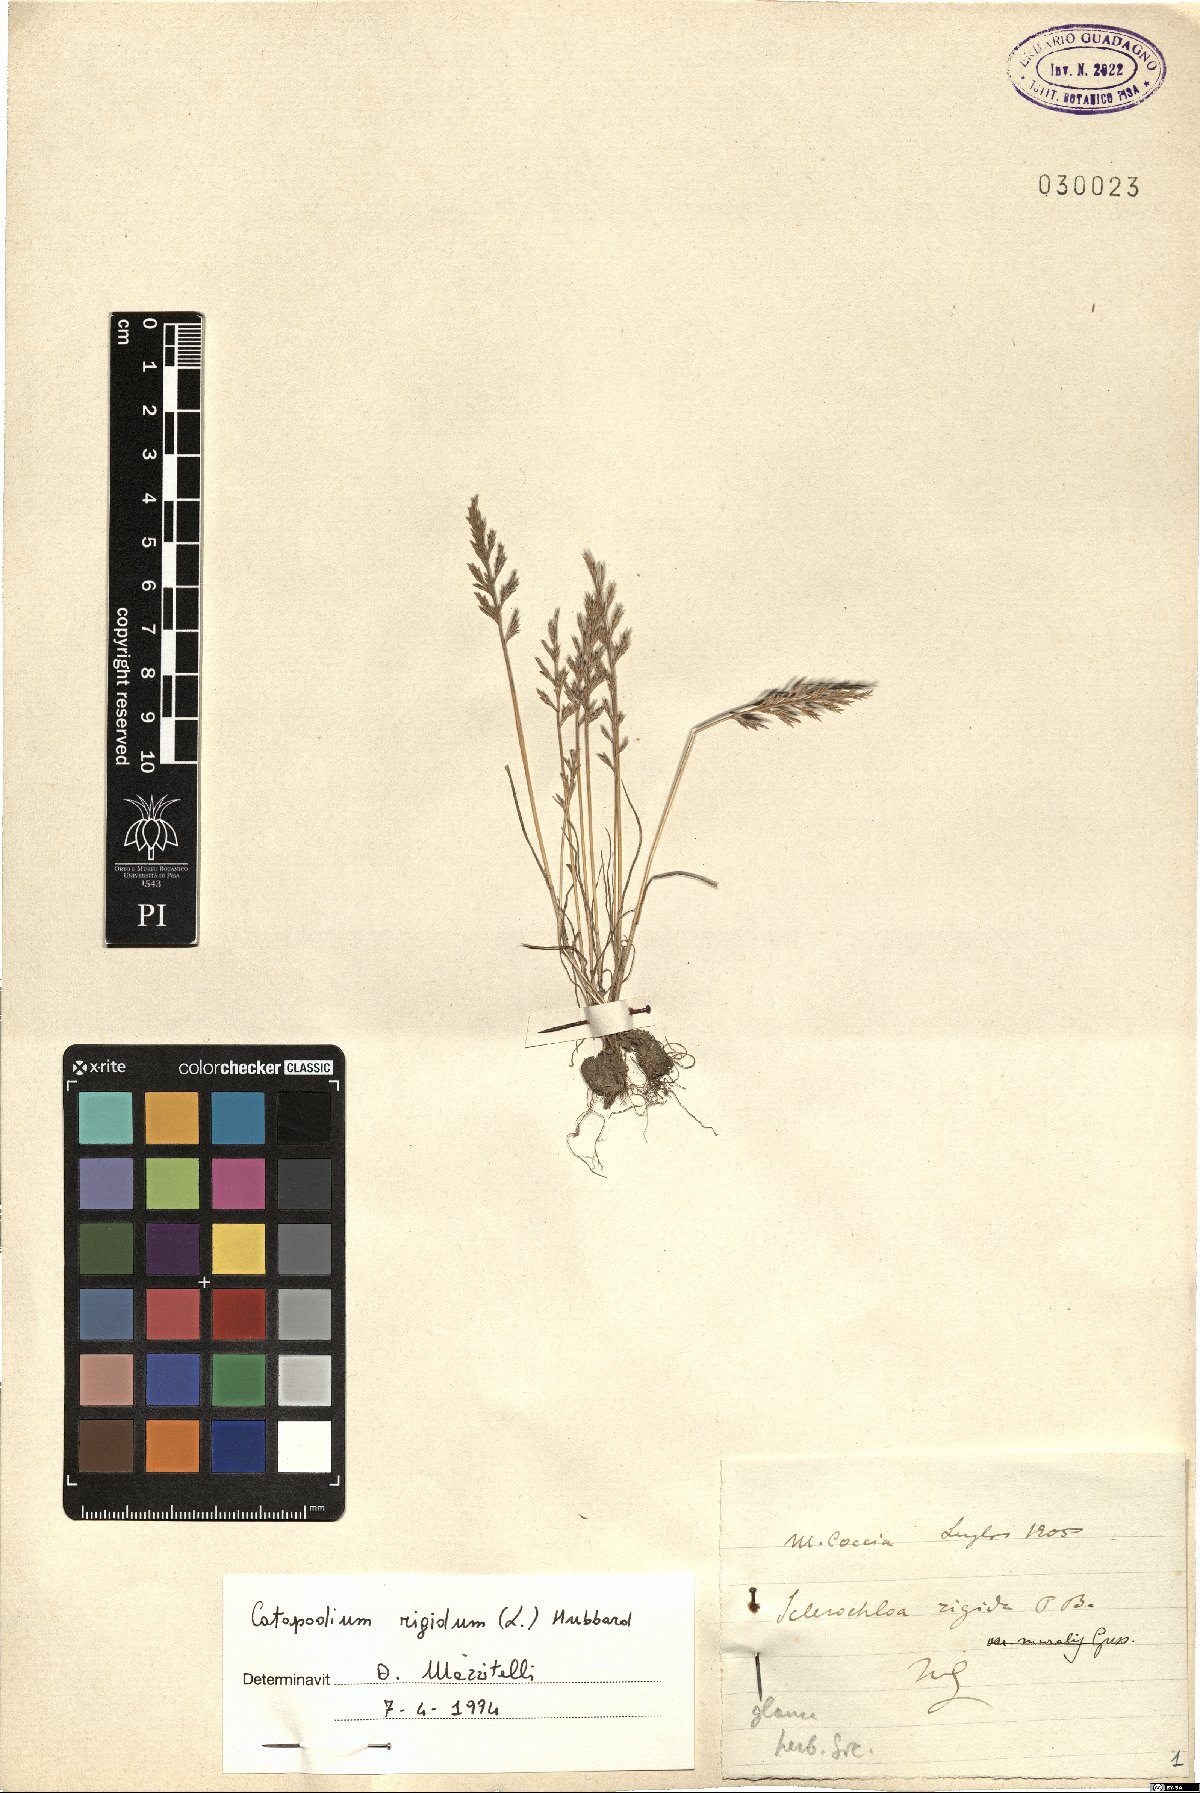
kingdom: Plantae
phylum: Tracheophyta
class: Liliopsida
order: Poales
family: Poaceae
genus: Catapodium
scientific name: Catapodium rigidum
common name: Fern-grass
